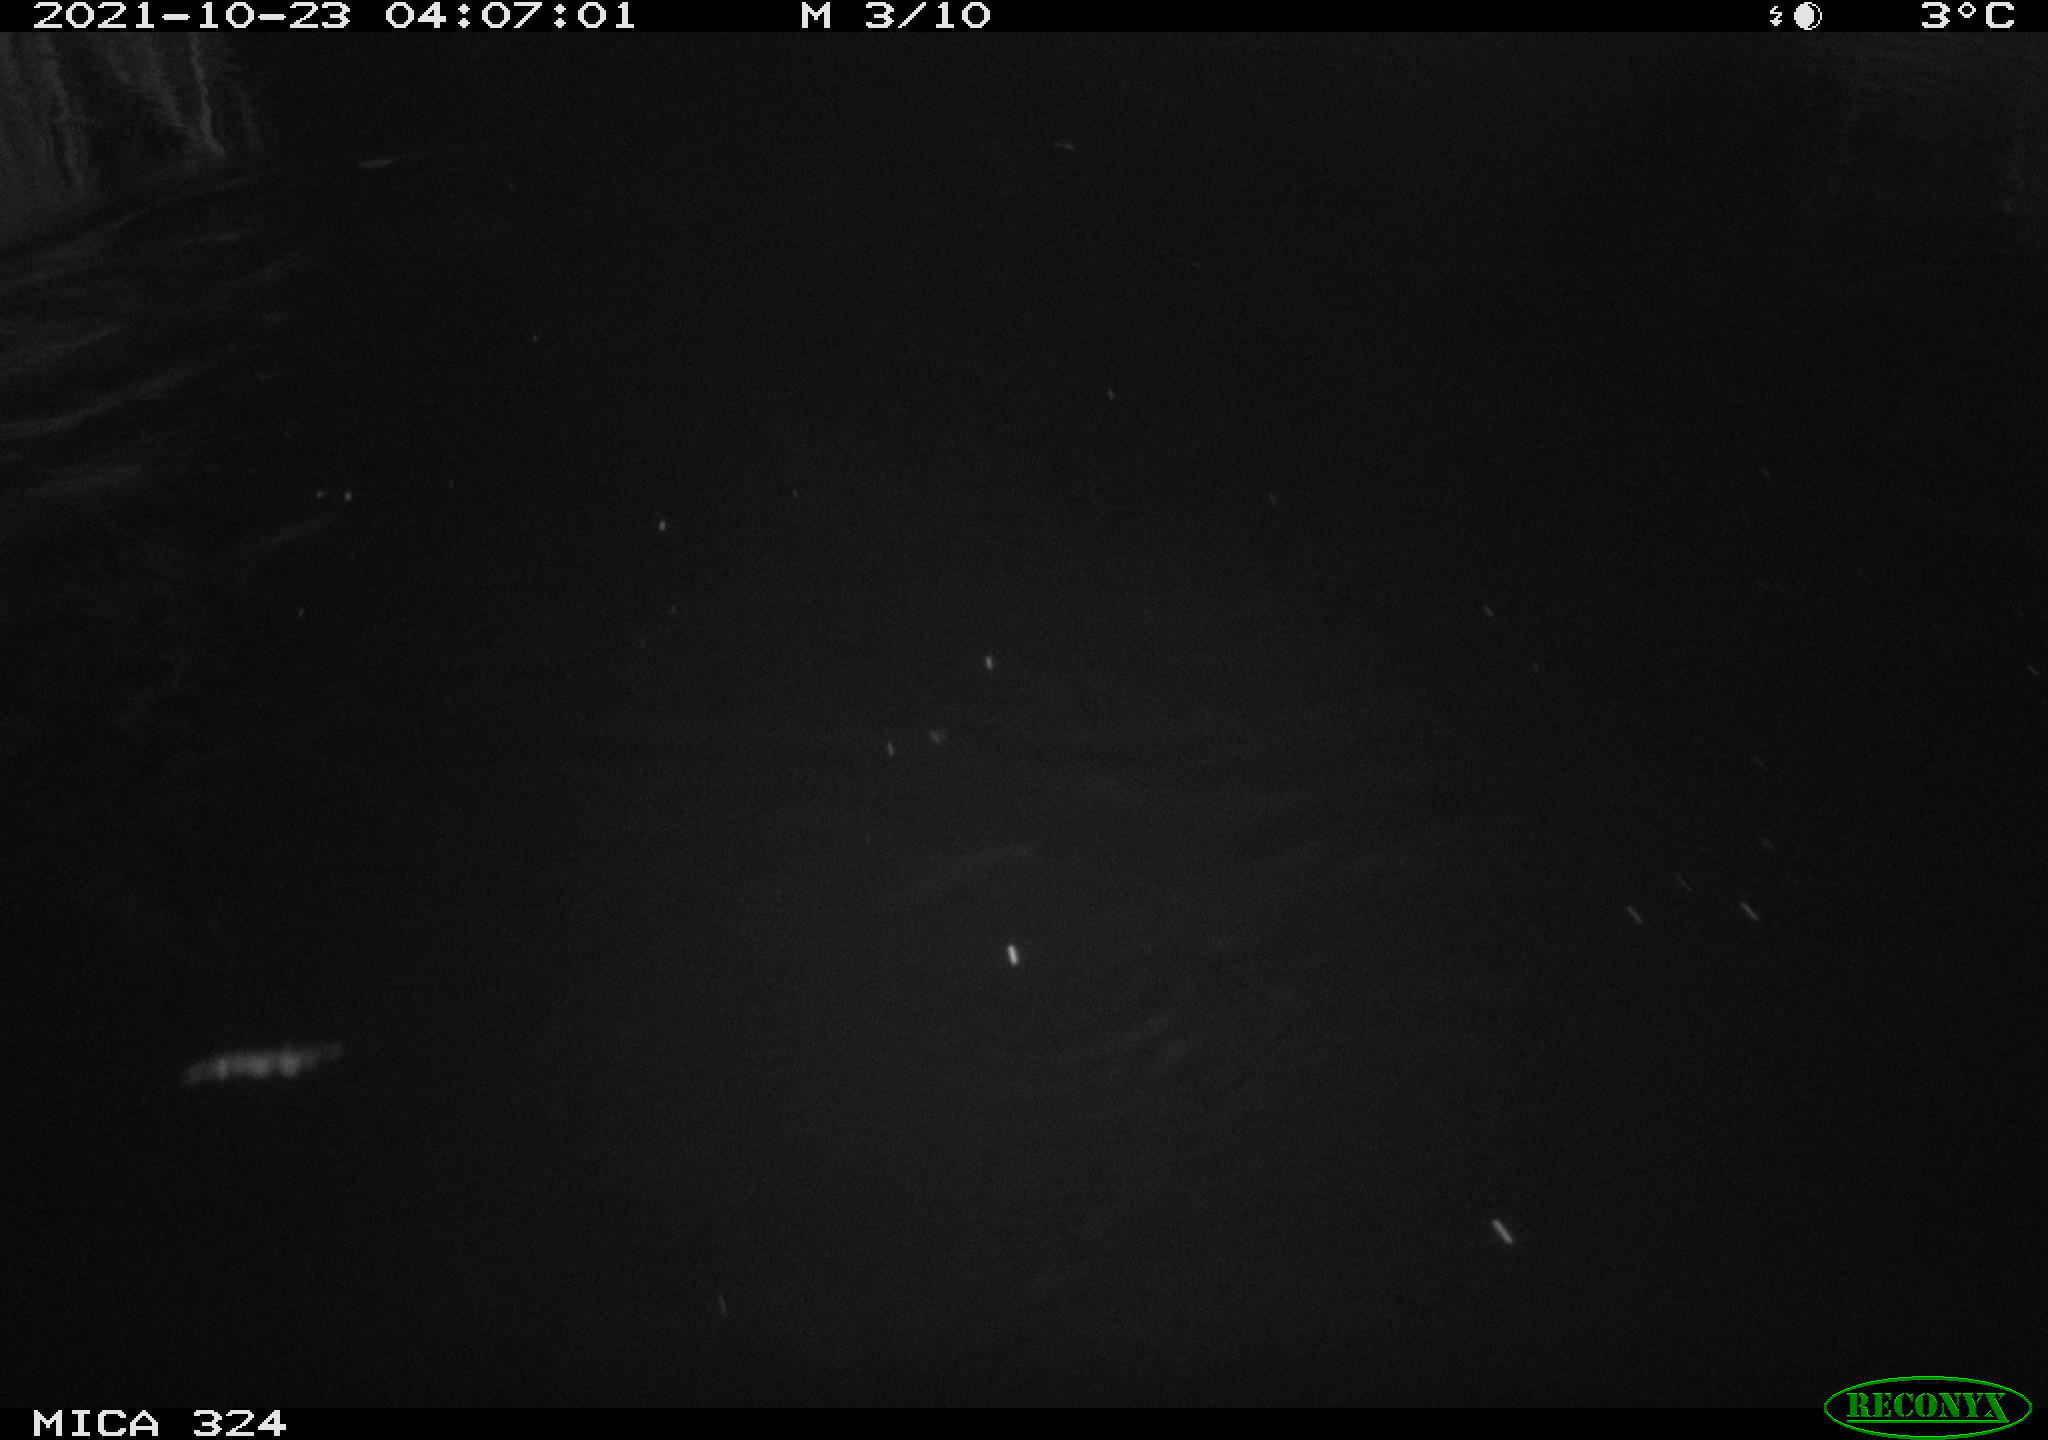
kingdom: Animalia
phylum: Chordata
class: Mammalia
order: Rodentia
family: Cricetidae
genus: Ondatra
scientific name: Ondatra zibethicus
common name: Muskrat
